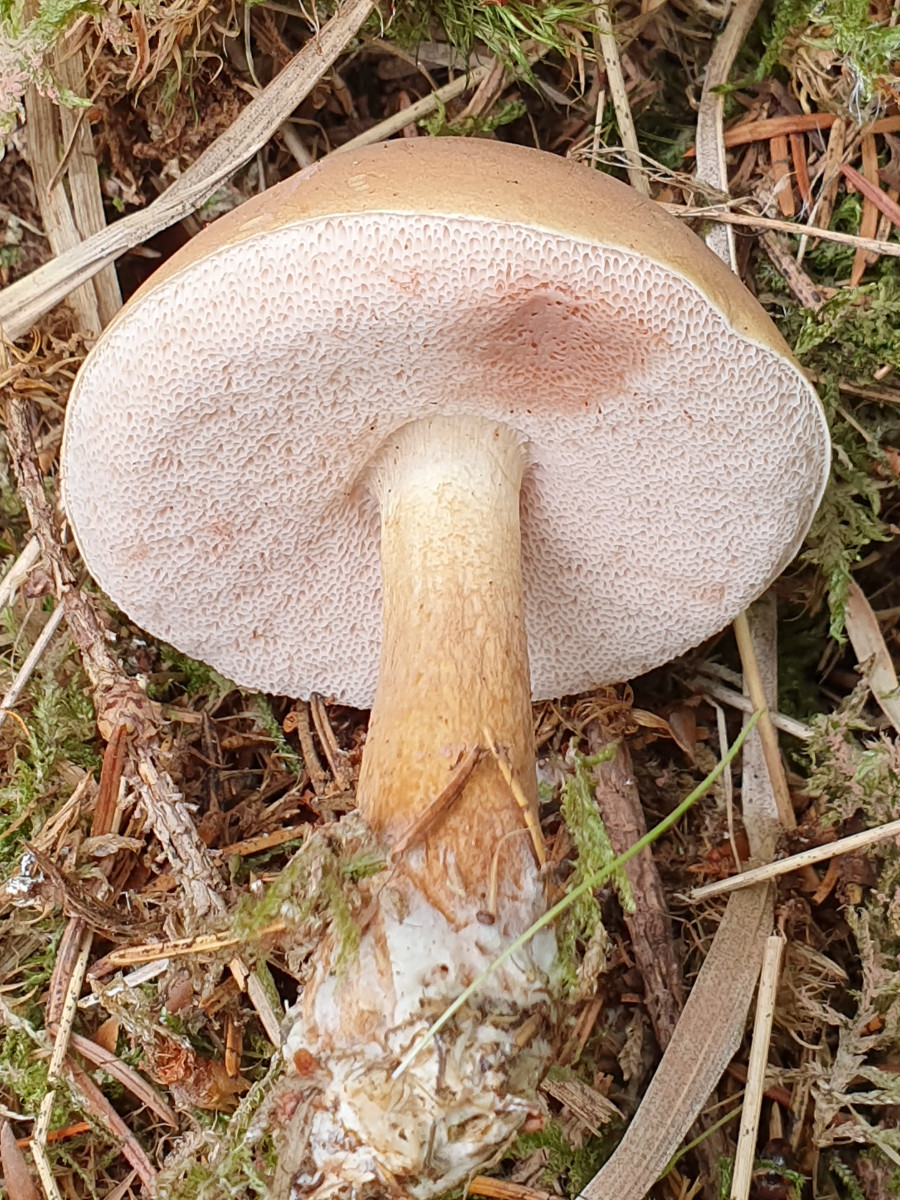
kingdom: Fungi
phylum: Basidiomycota
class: Agaricomycetes
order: Boletales
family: Boletaceae
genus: Tylopilus
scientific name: Tylopilus felleus
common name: galderørhat
